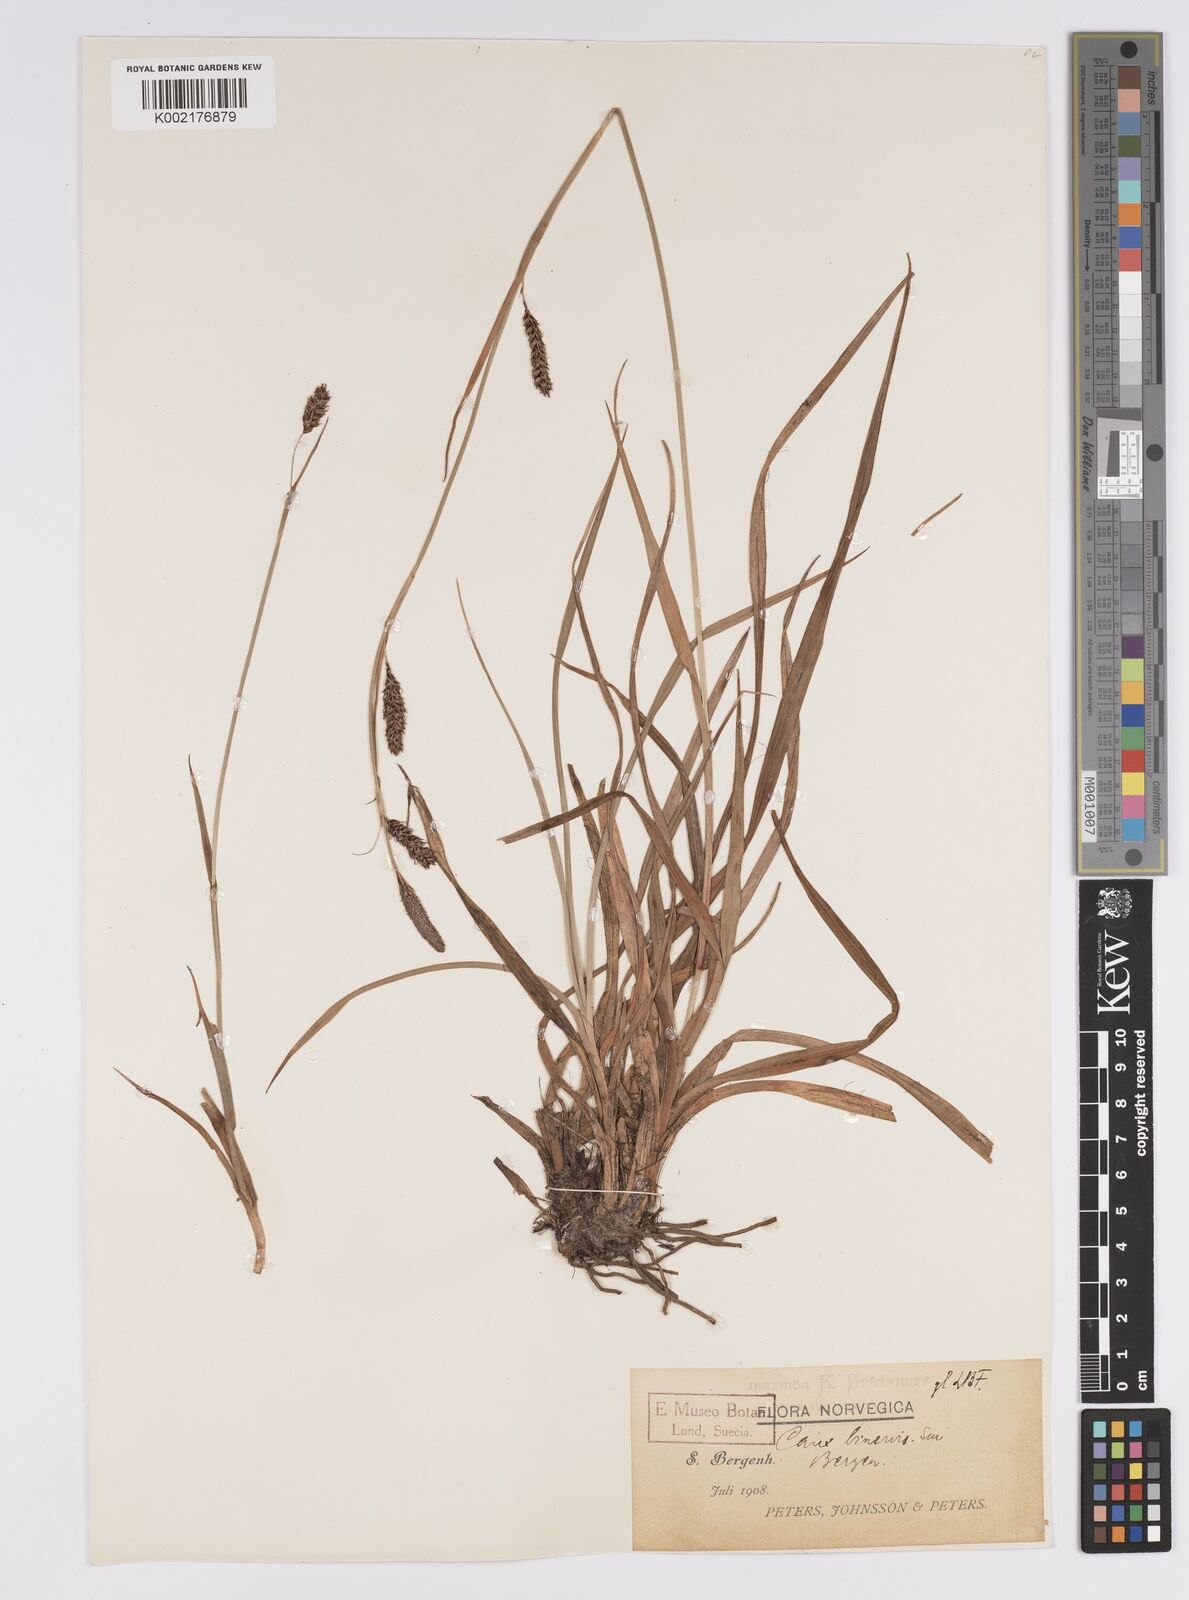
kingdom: Plantae
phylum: Tracheophyta
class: Liliopsida
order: Poales
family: Cyperaceae
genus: Carex
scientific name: Carex binervis
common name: Green-ribbed sedge
